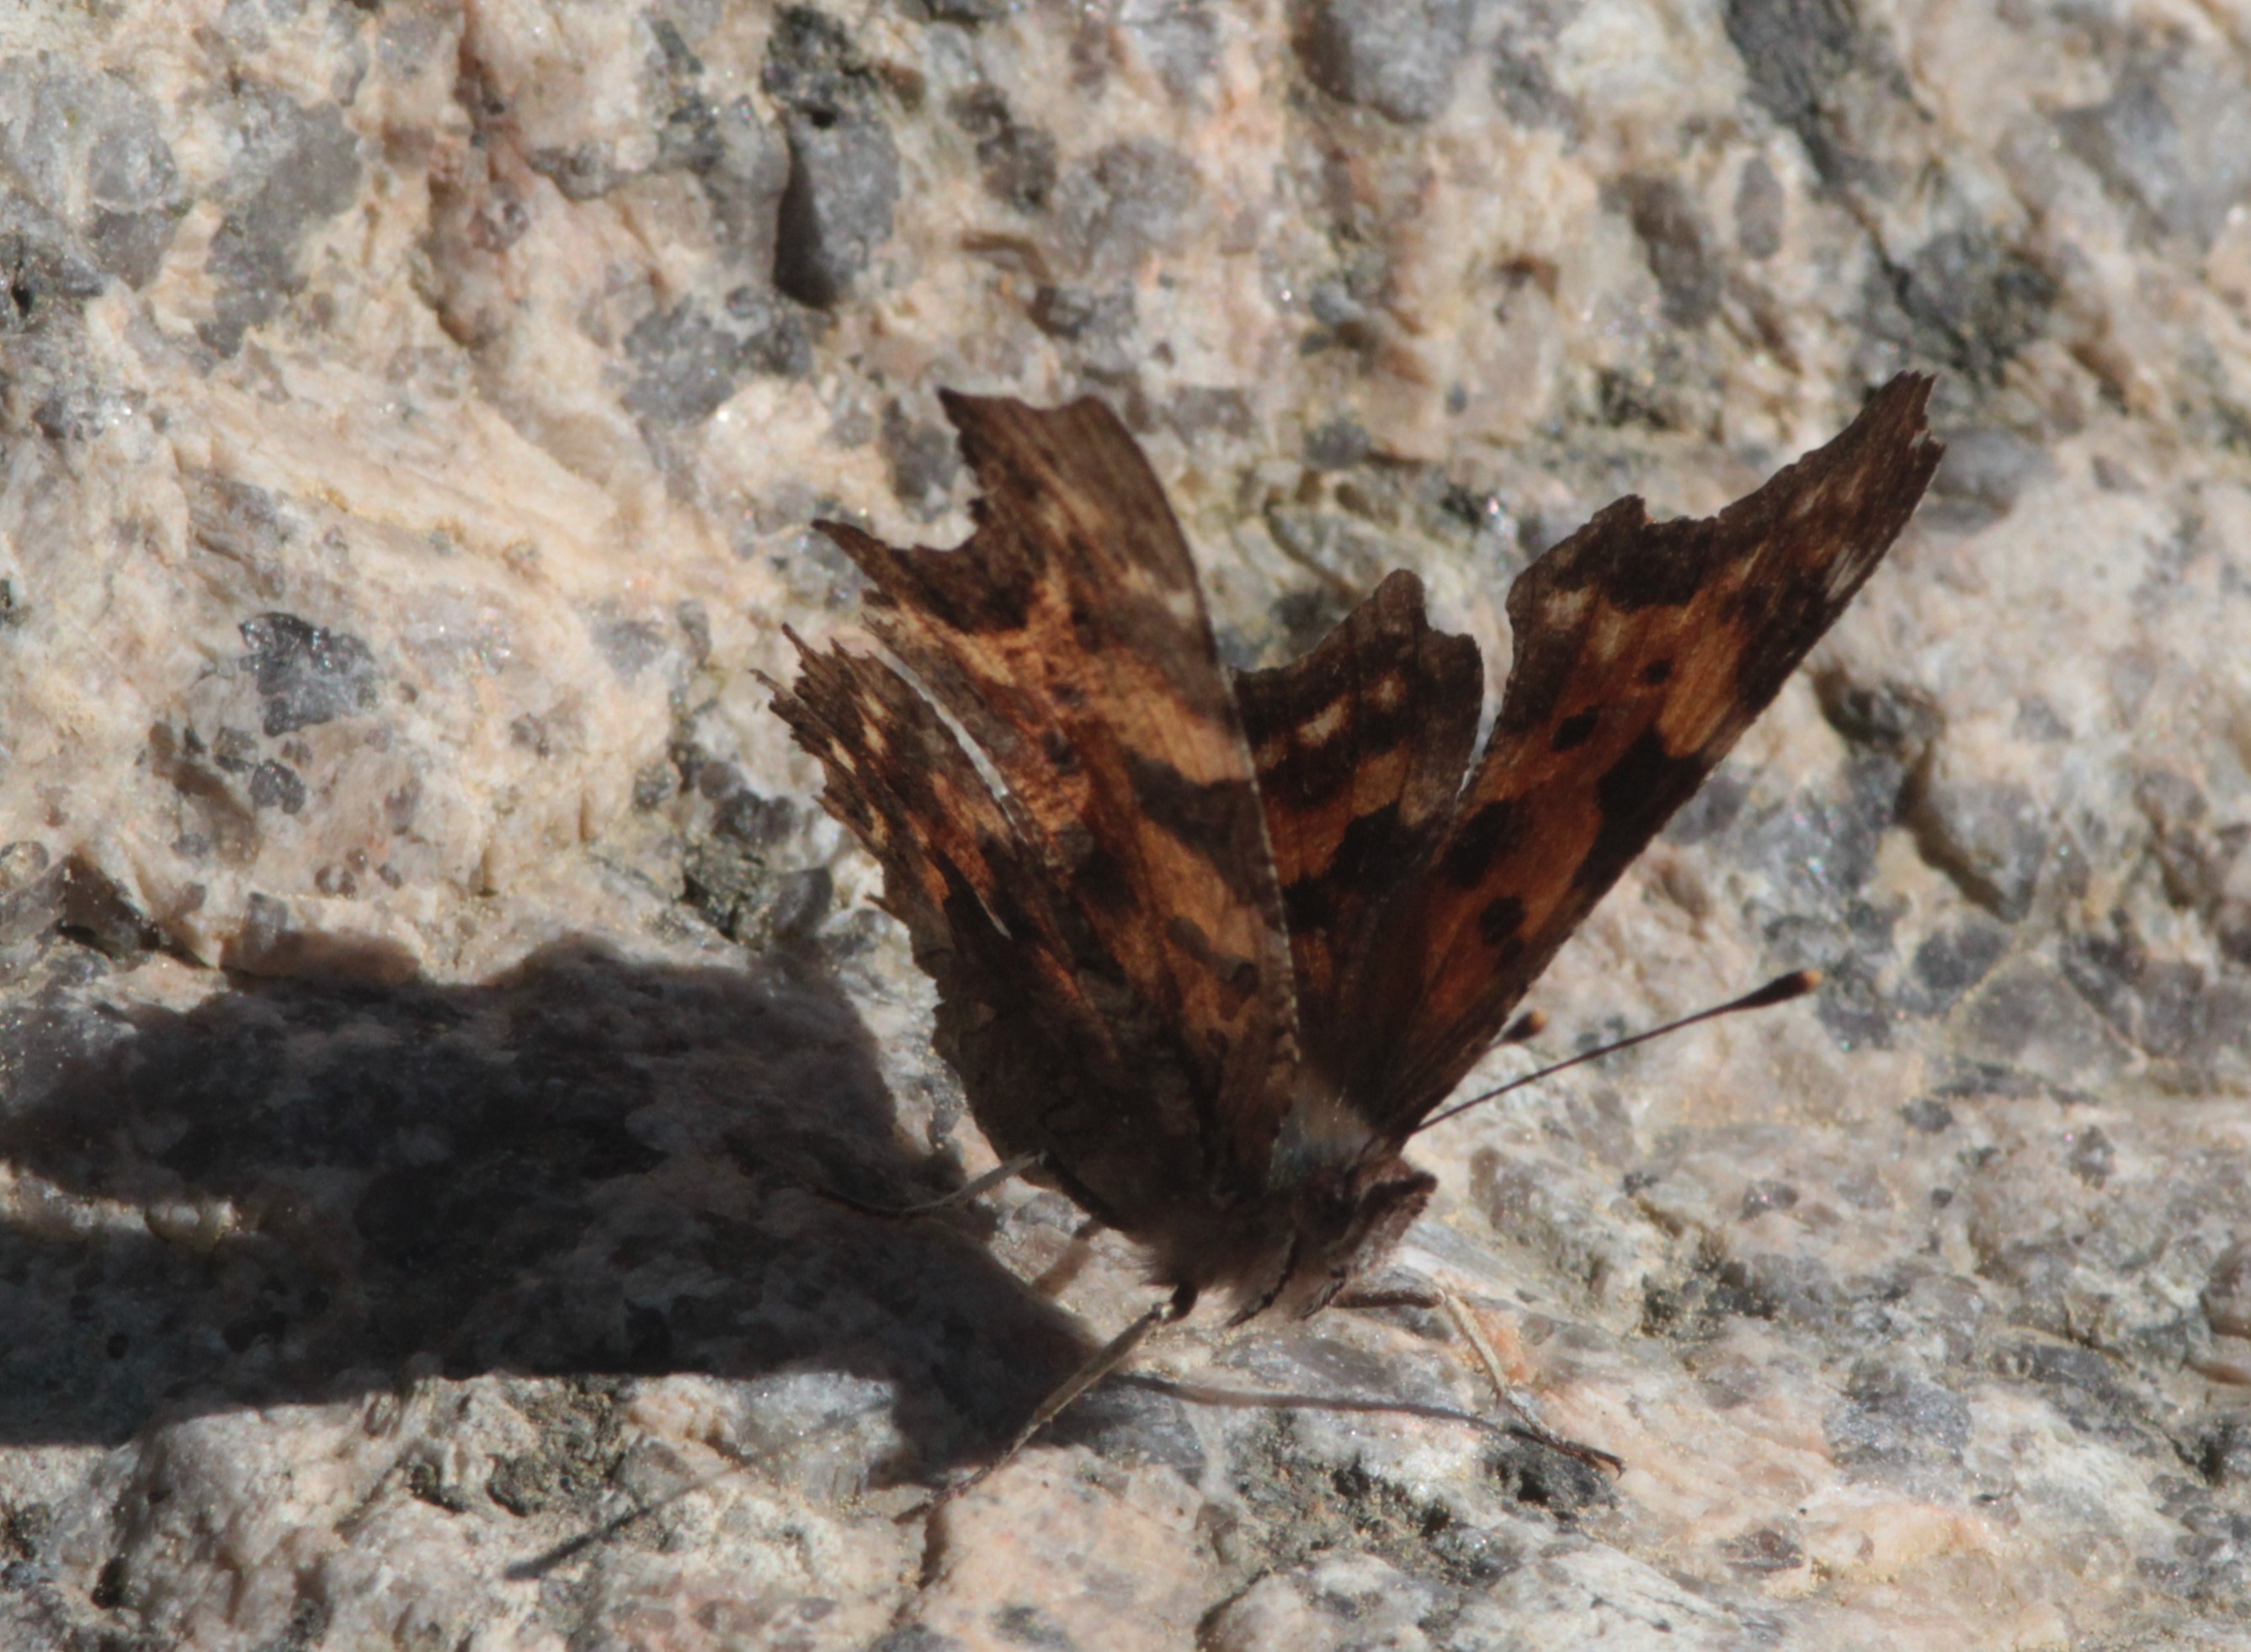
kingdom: Animalia
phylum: Arthropoda
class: Insecta
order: Lepidoptera
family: Nymphalidae
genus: Polygonia
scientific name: Polygonia c-album
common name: Comma
